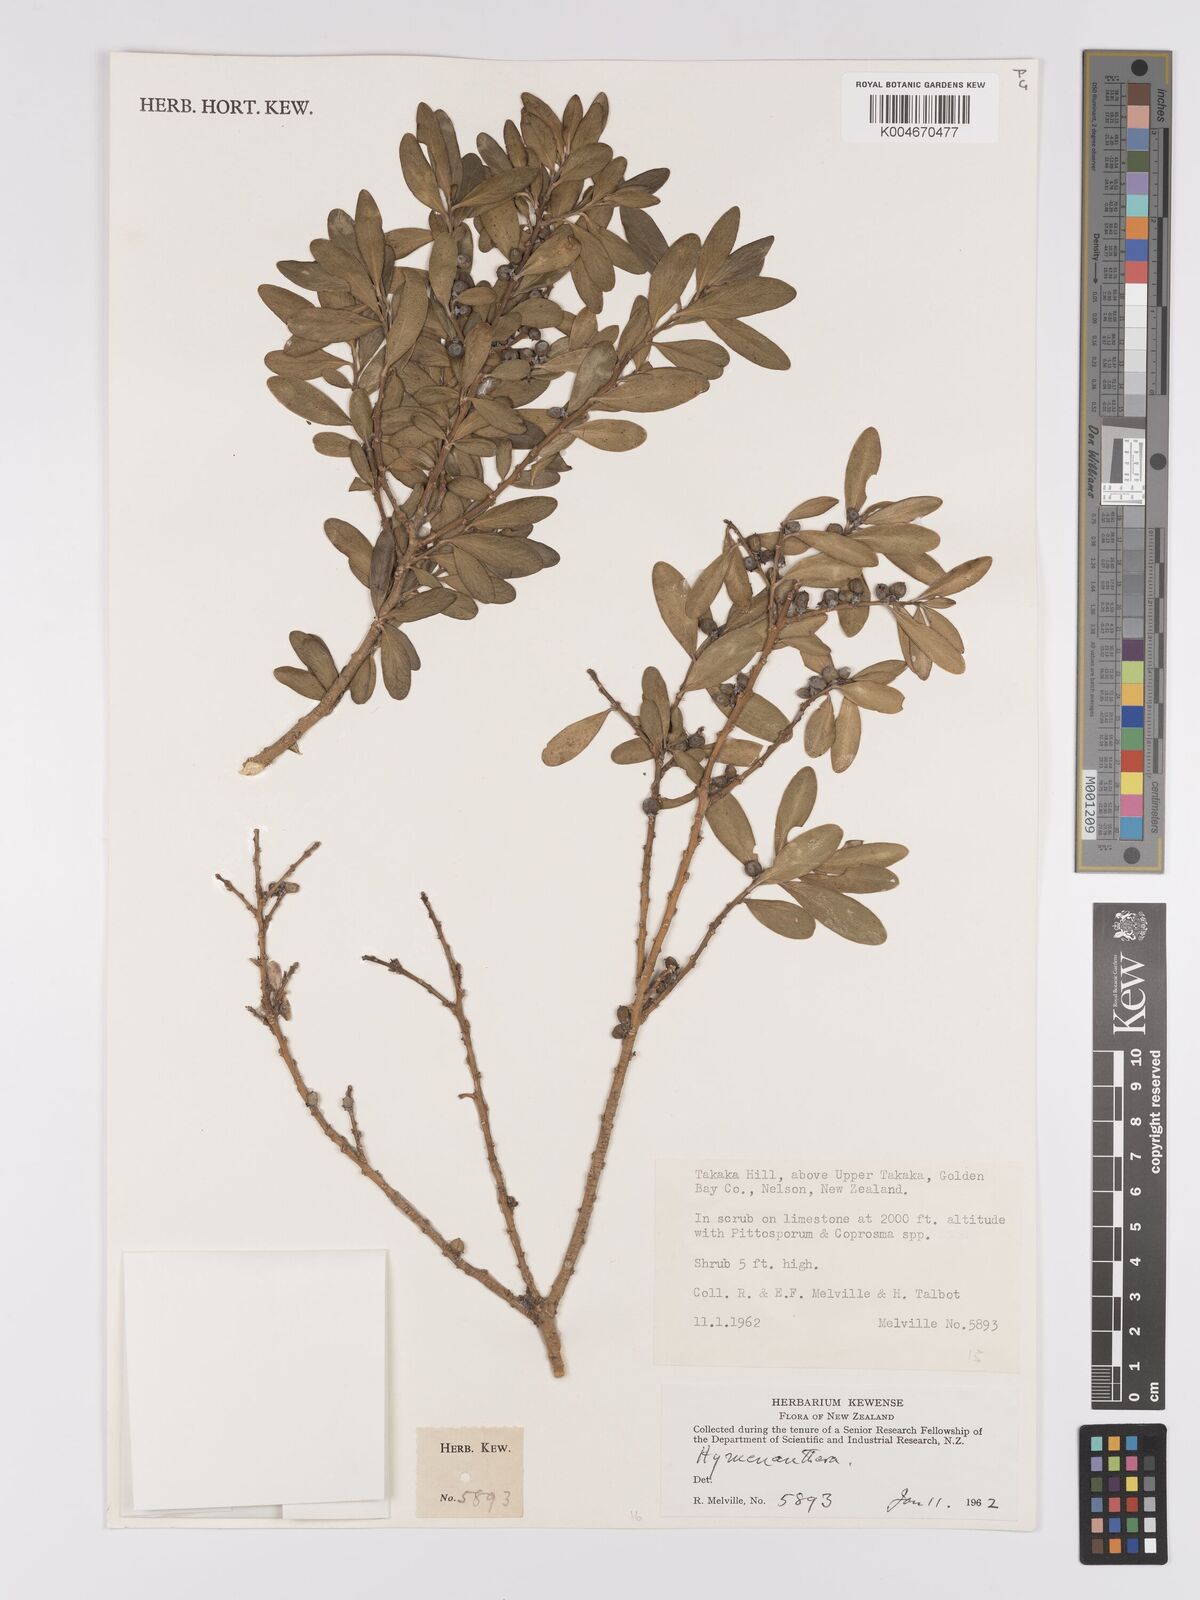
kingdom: Plantae
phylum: Tracheophyta
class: Magnoliopsida
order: Malpighiales
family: Violaceae
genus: Melicytus
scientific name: Melicytus
